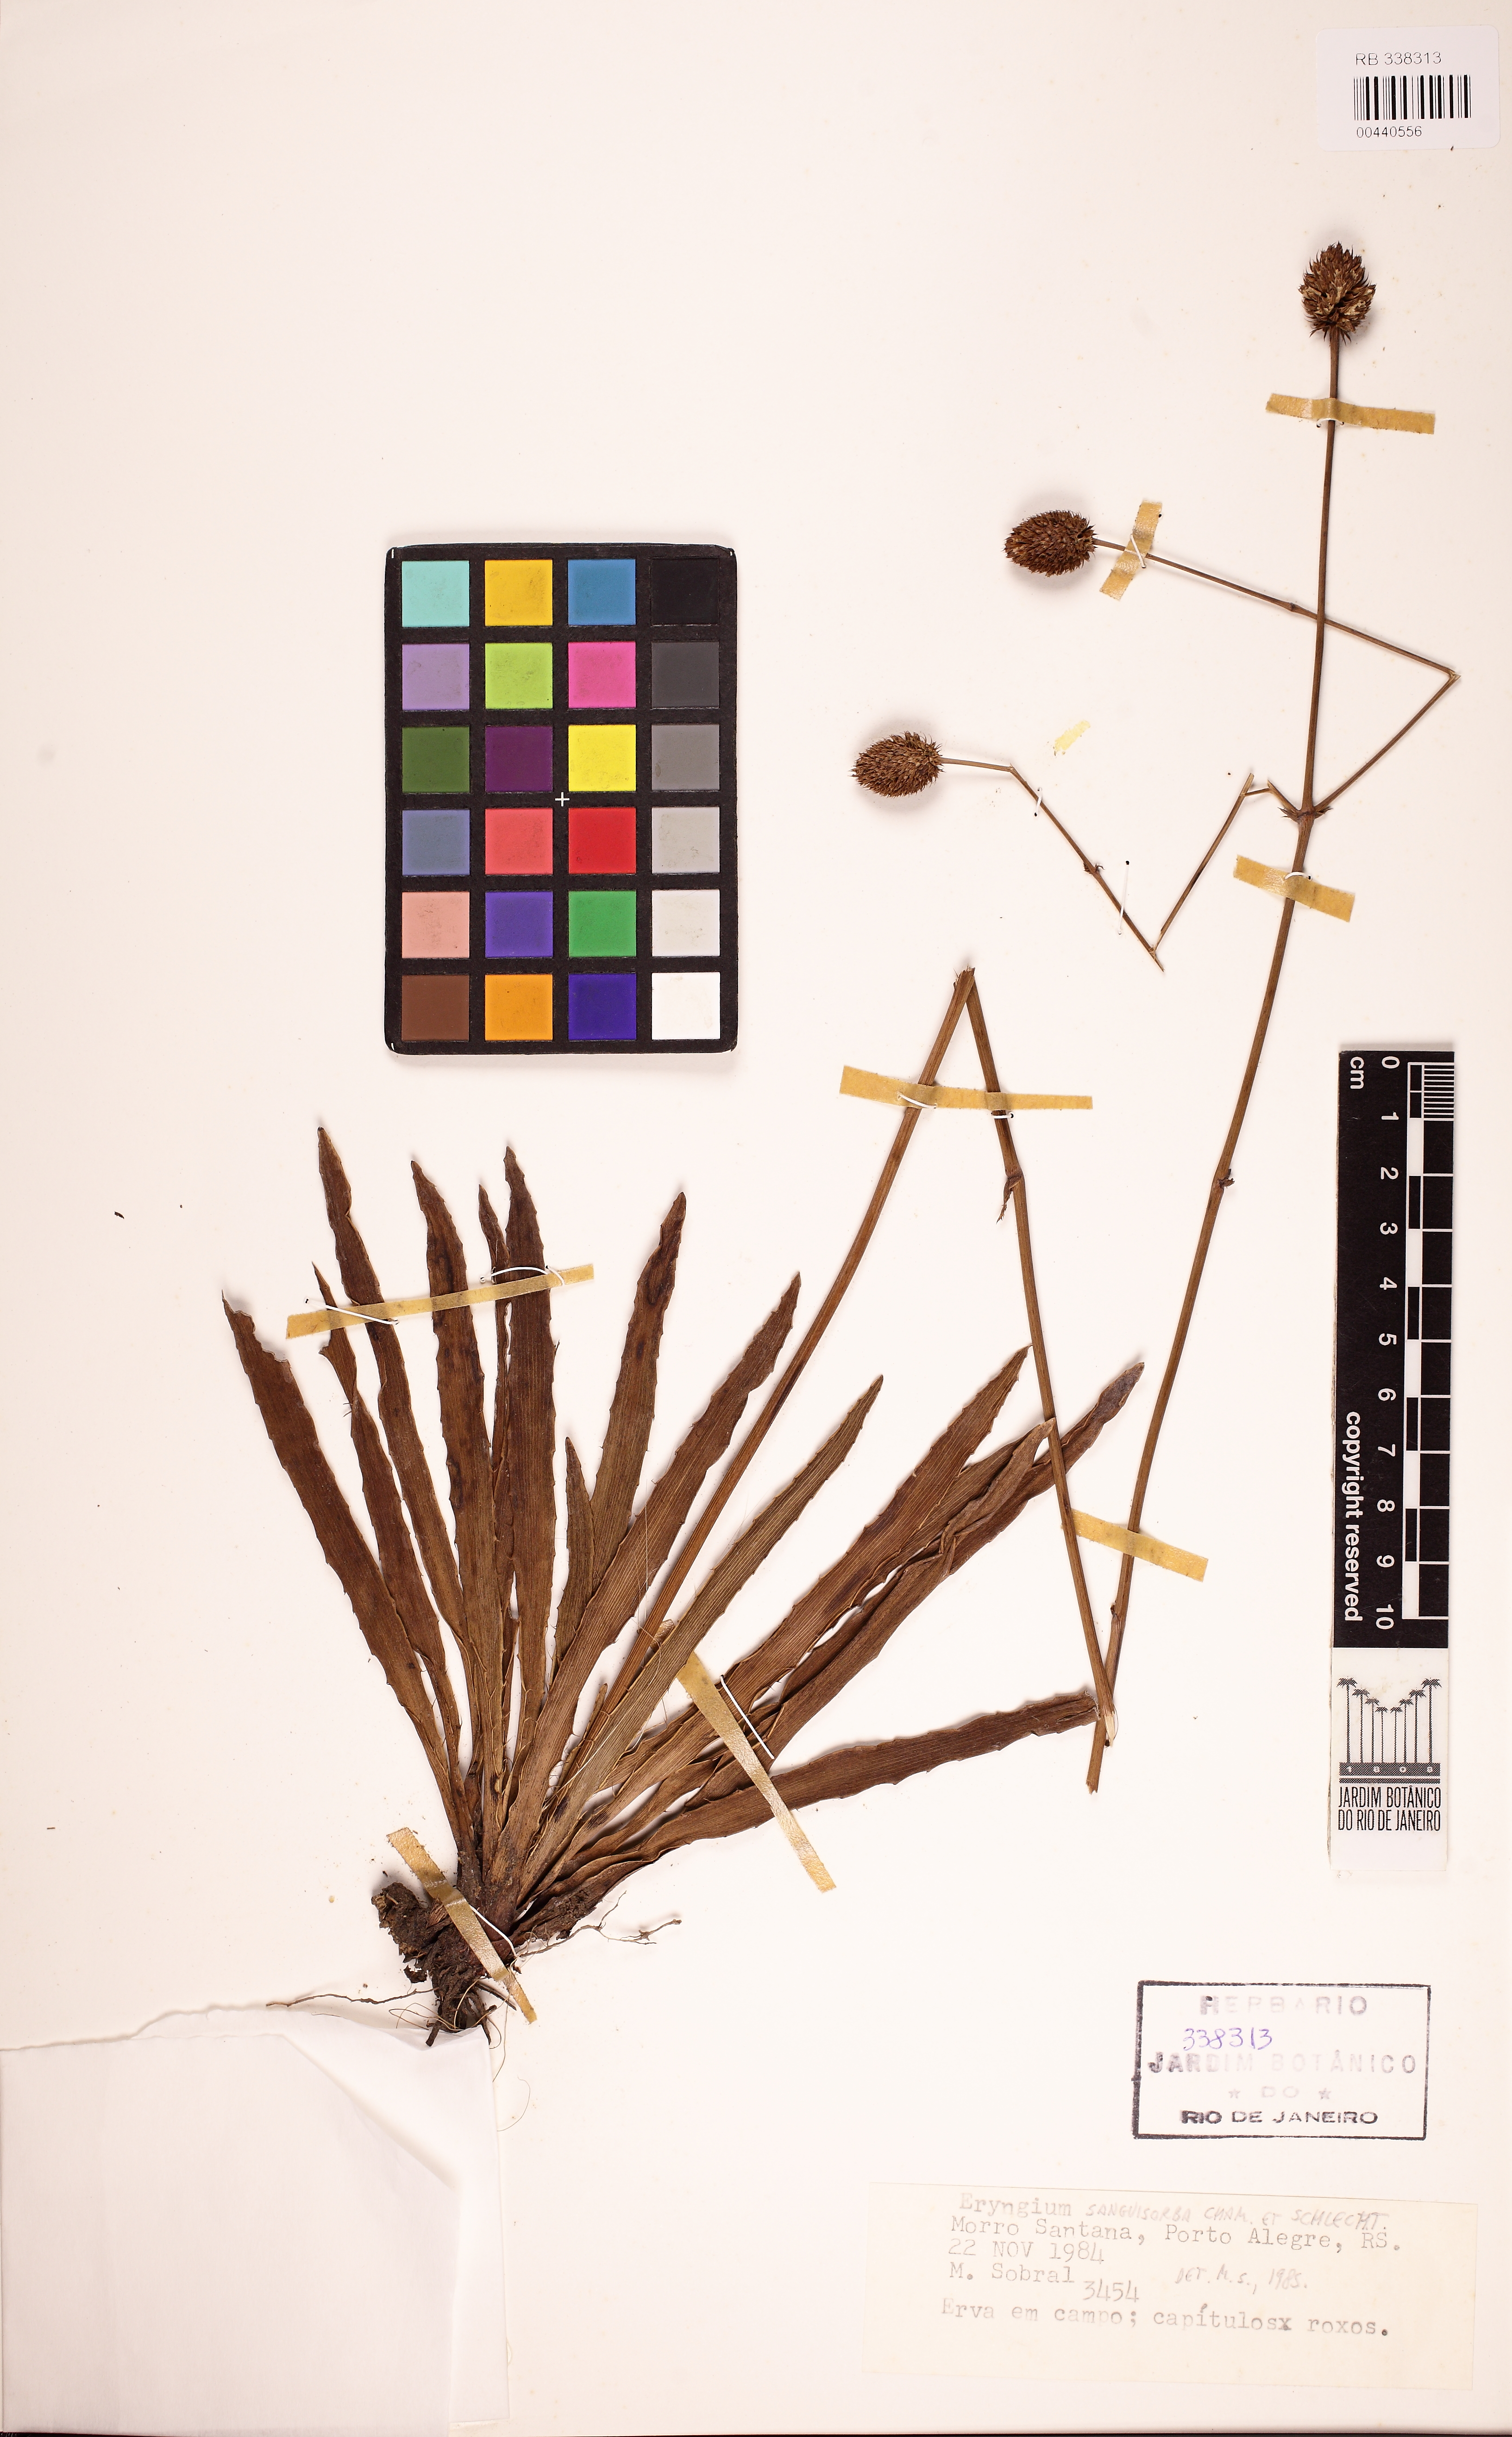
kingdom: Plantae
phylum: Tracheophyta
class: Magnoliopsida
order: Apiales
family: Apiaceae
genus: Eryngium
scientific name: Eryngium sanguisorba
